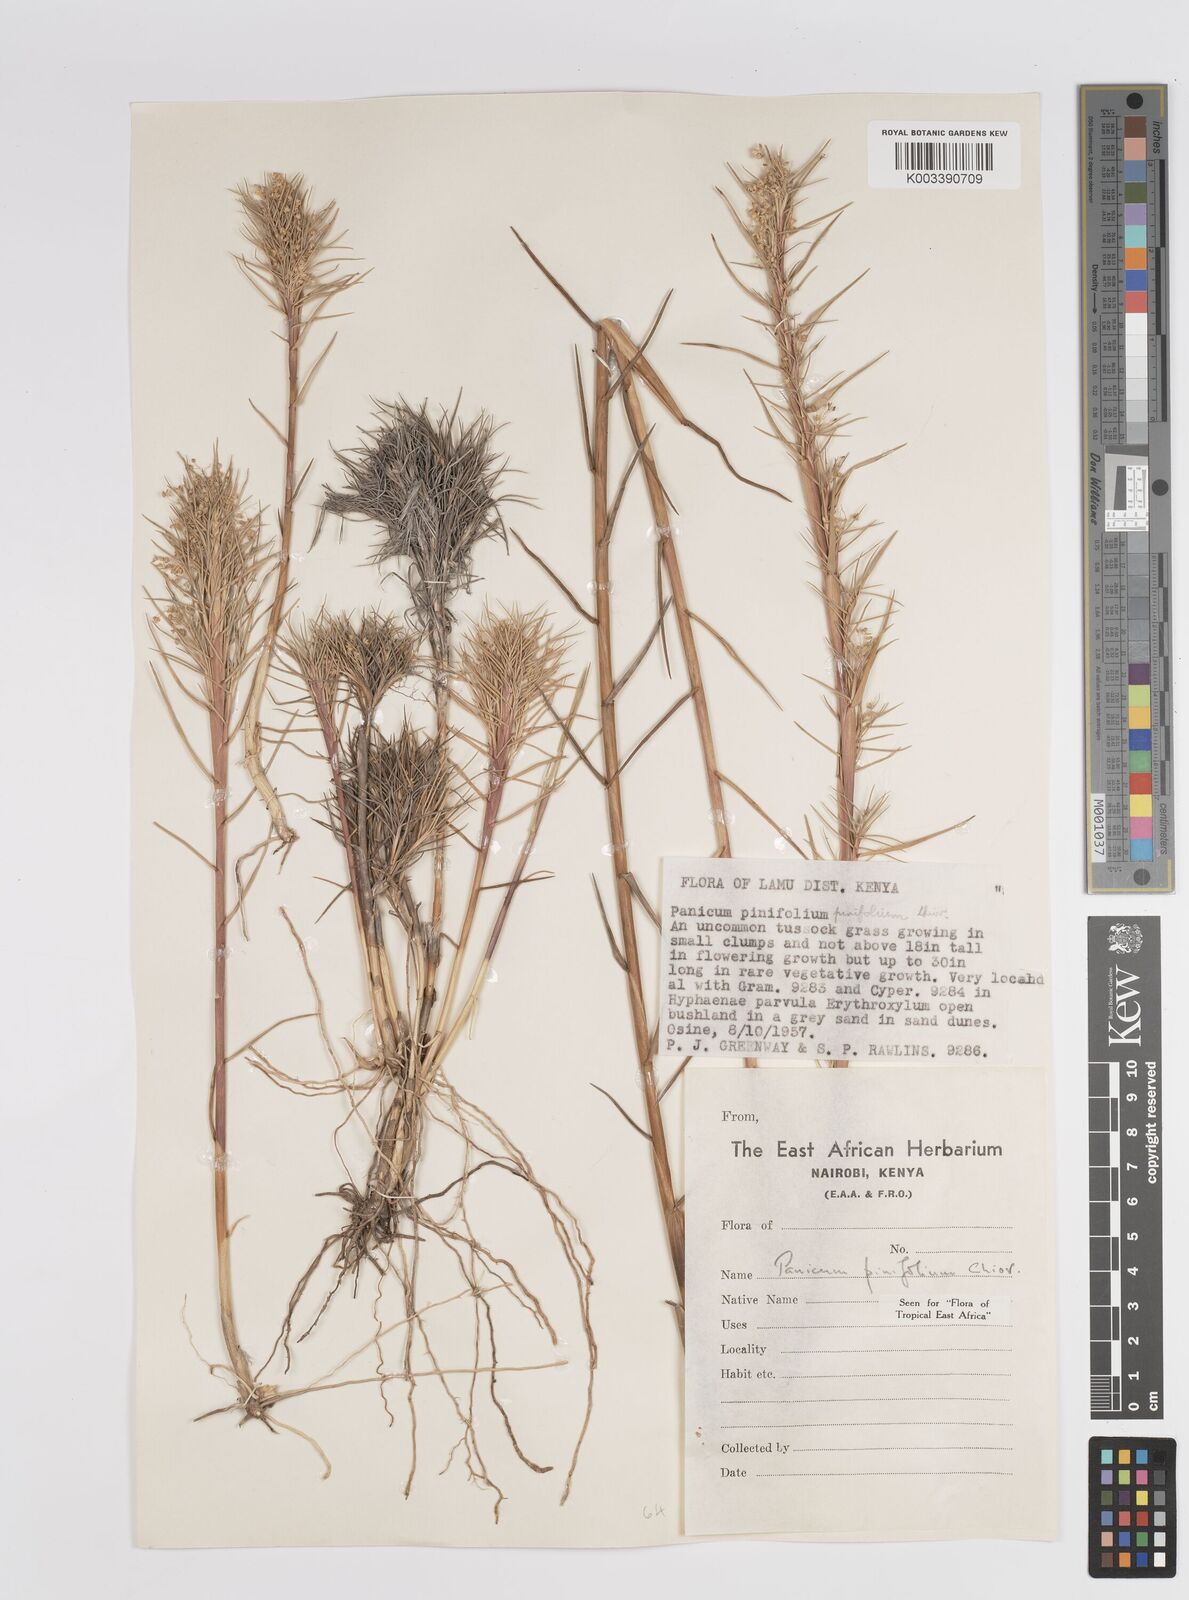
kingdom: Plantae
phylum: Tracheophyta
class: Liliopsida
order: Poales
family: Poaceae
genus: Panicum
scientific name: Panicum pinifolium
